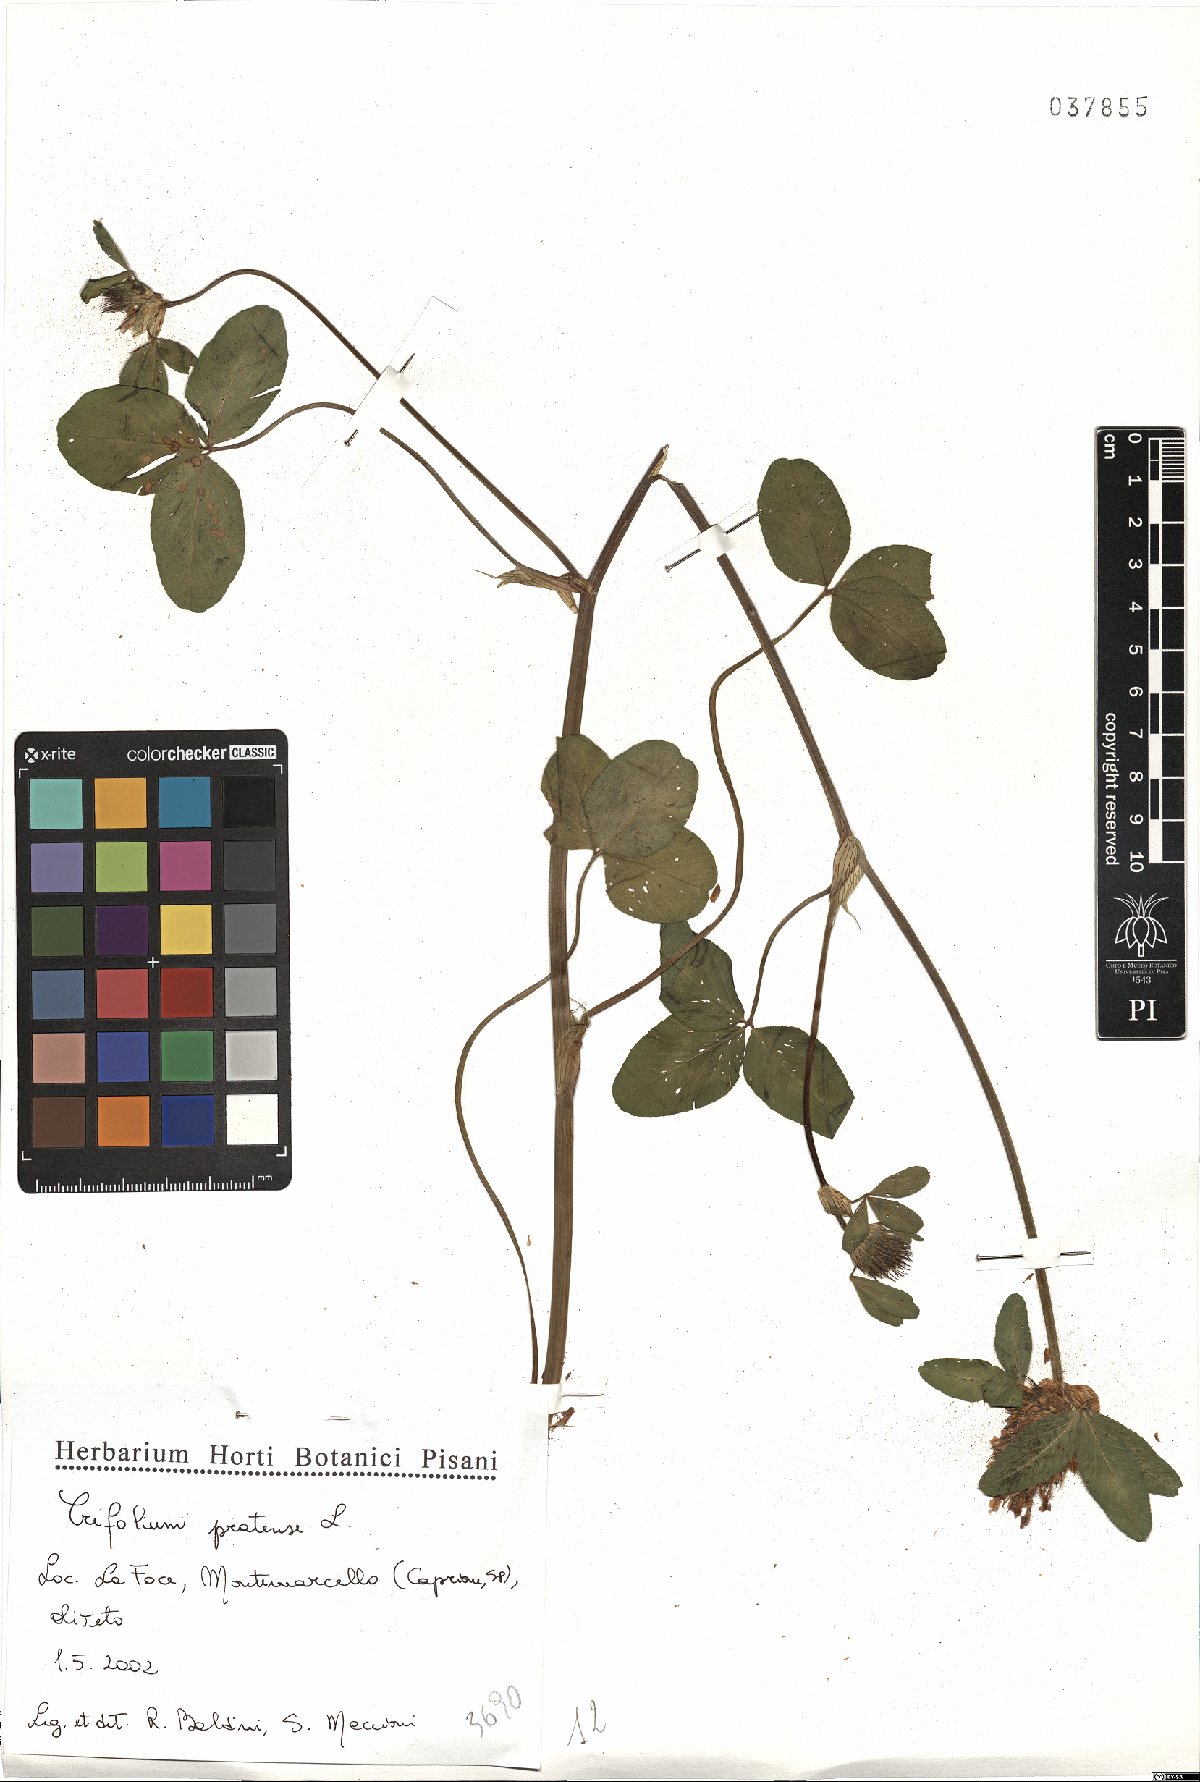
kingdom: Plantae
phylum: Tracheophyta
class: Magnoliopsida
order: Fabales
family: Fabaceae
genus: Trifolium
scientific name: Trifolium pratense
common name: Red clover
